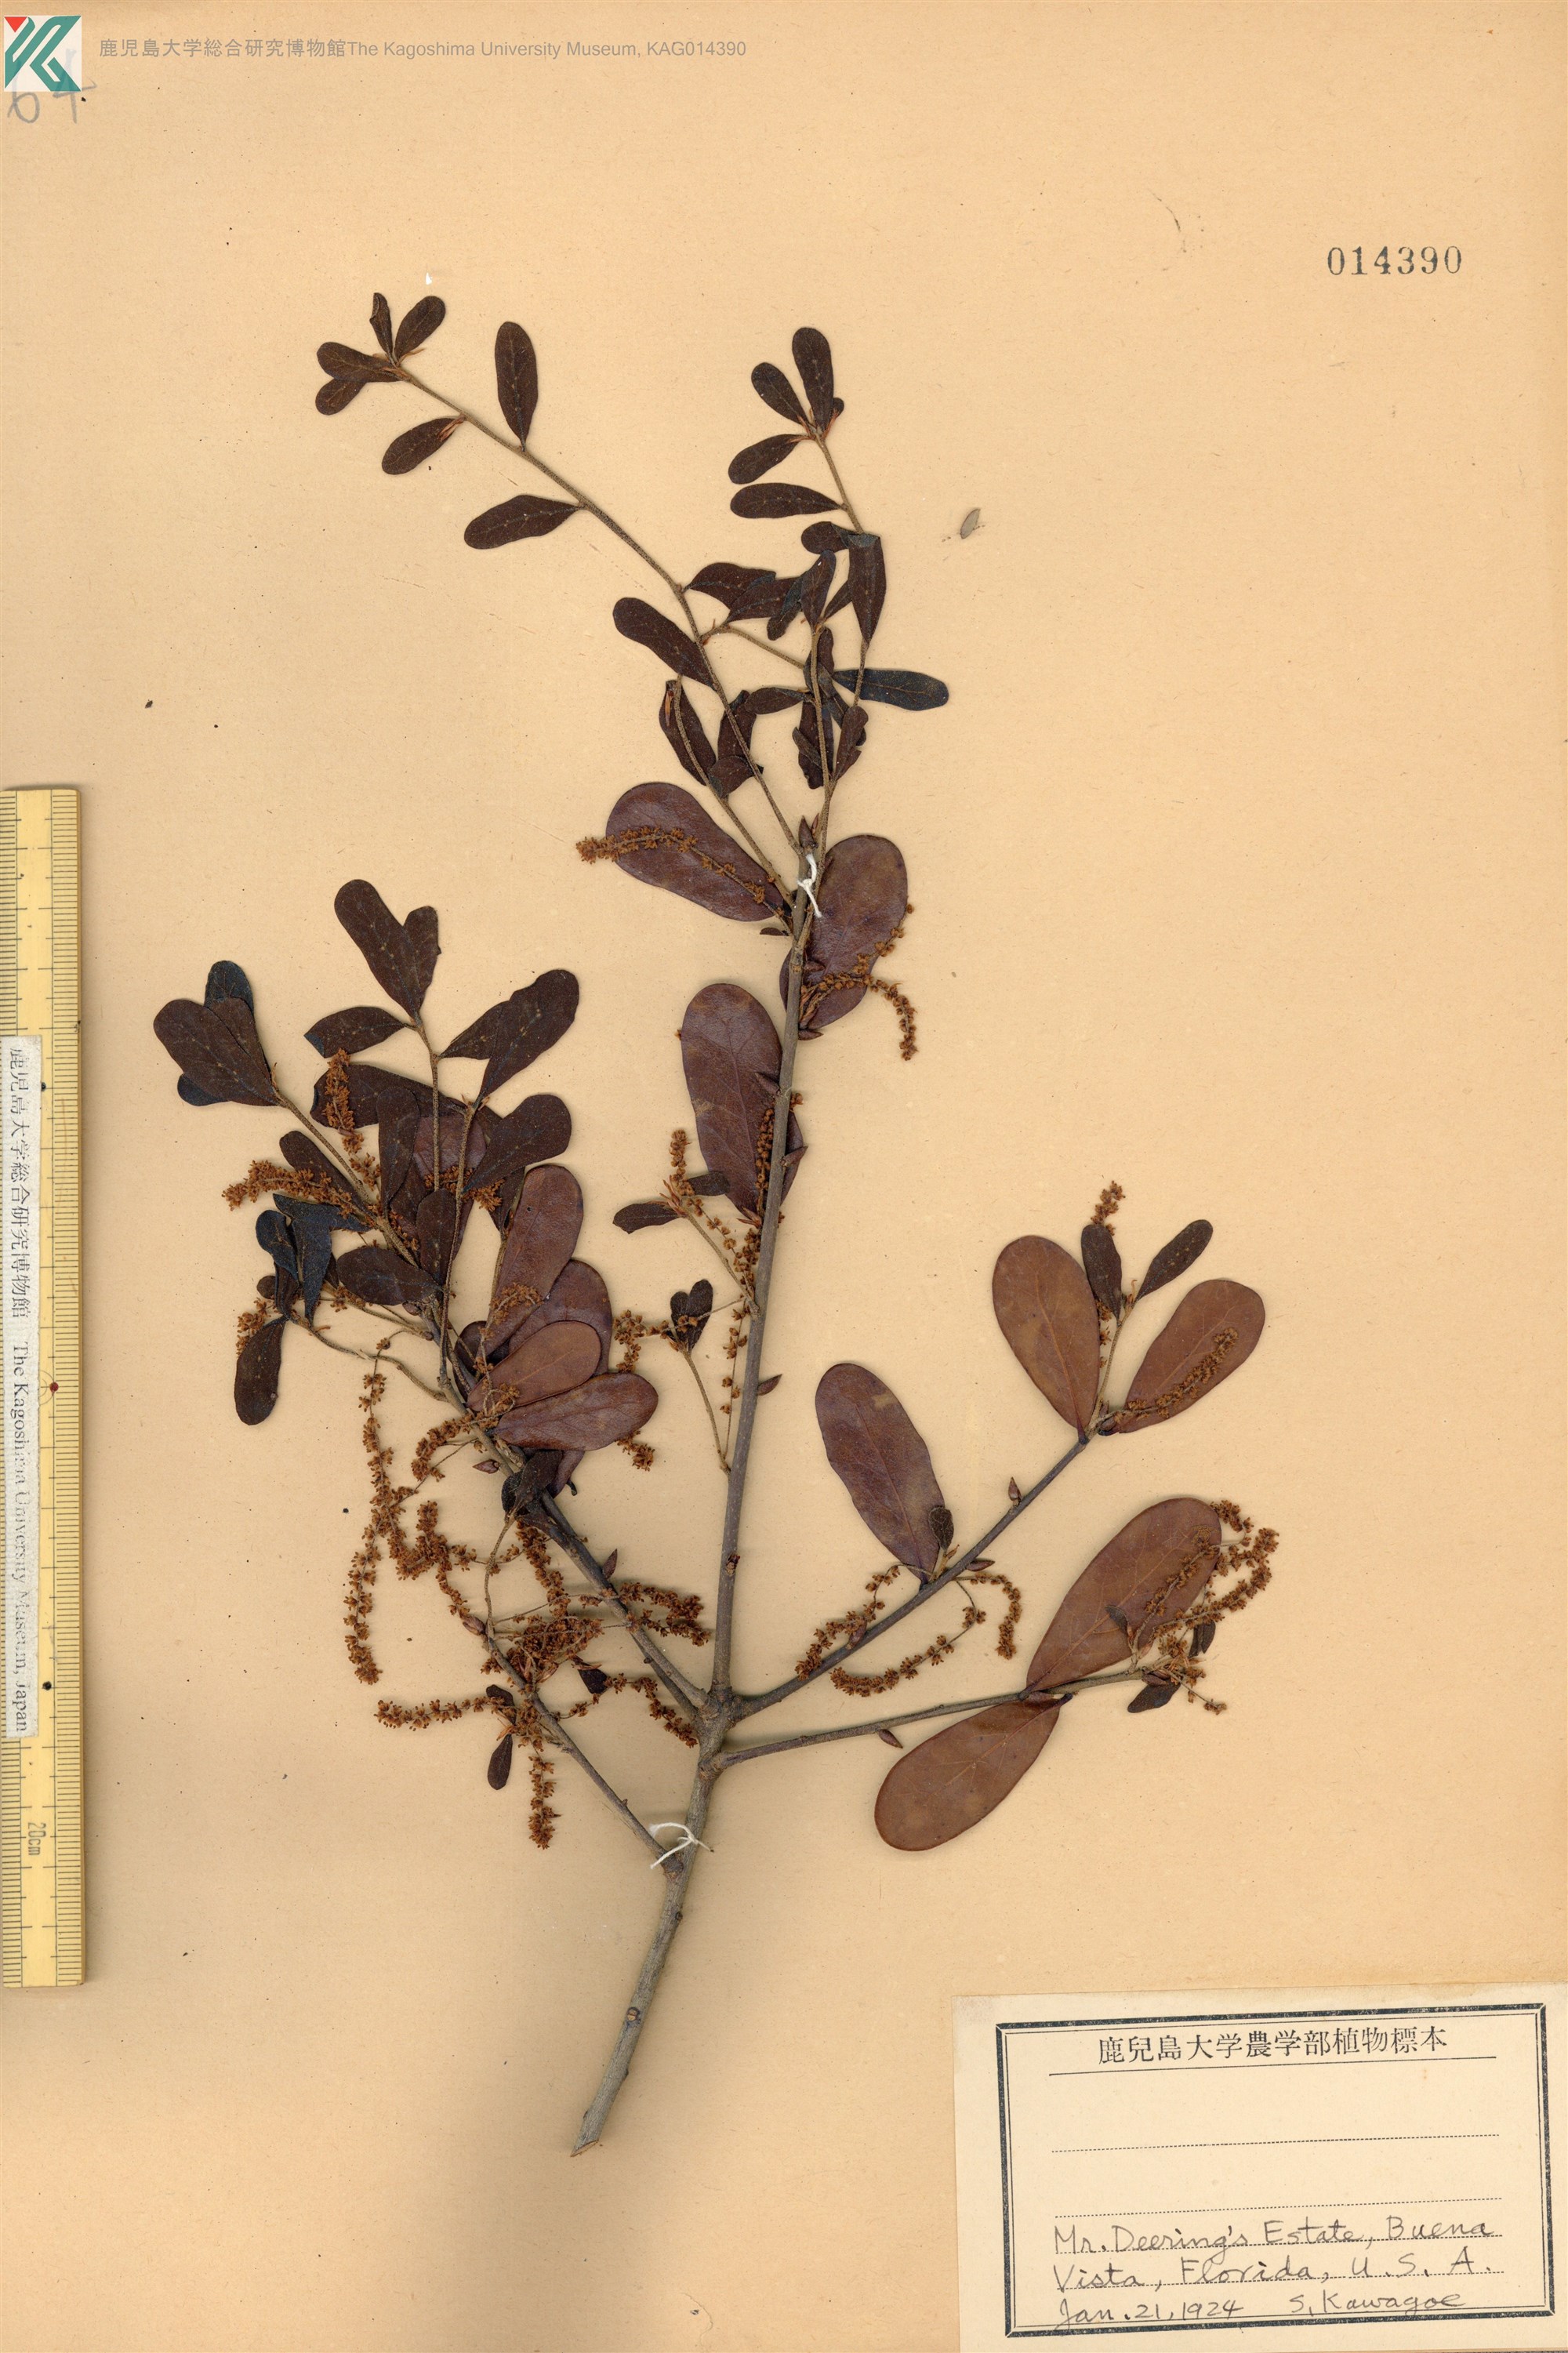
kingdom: Plantae
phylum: Tracheophyta
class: Magnoliopsida
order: Fagales
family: Fagaceae
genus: Quercus
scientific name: Quercus
